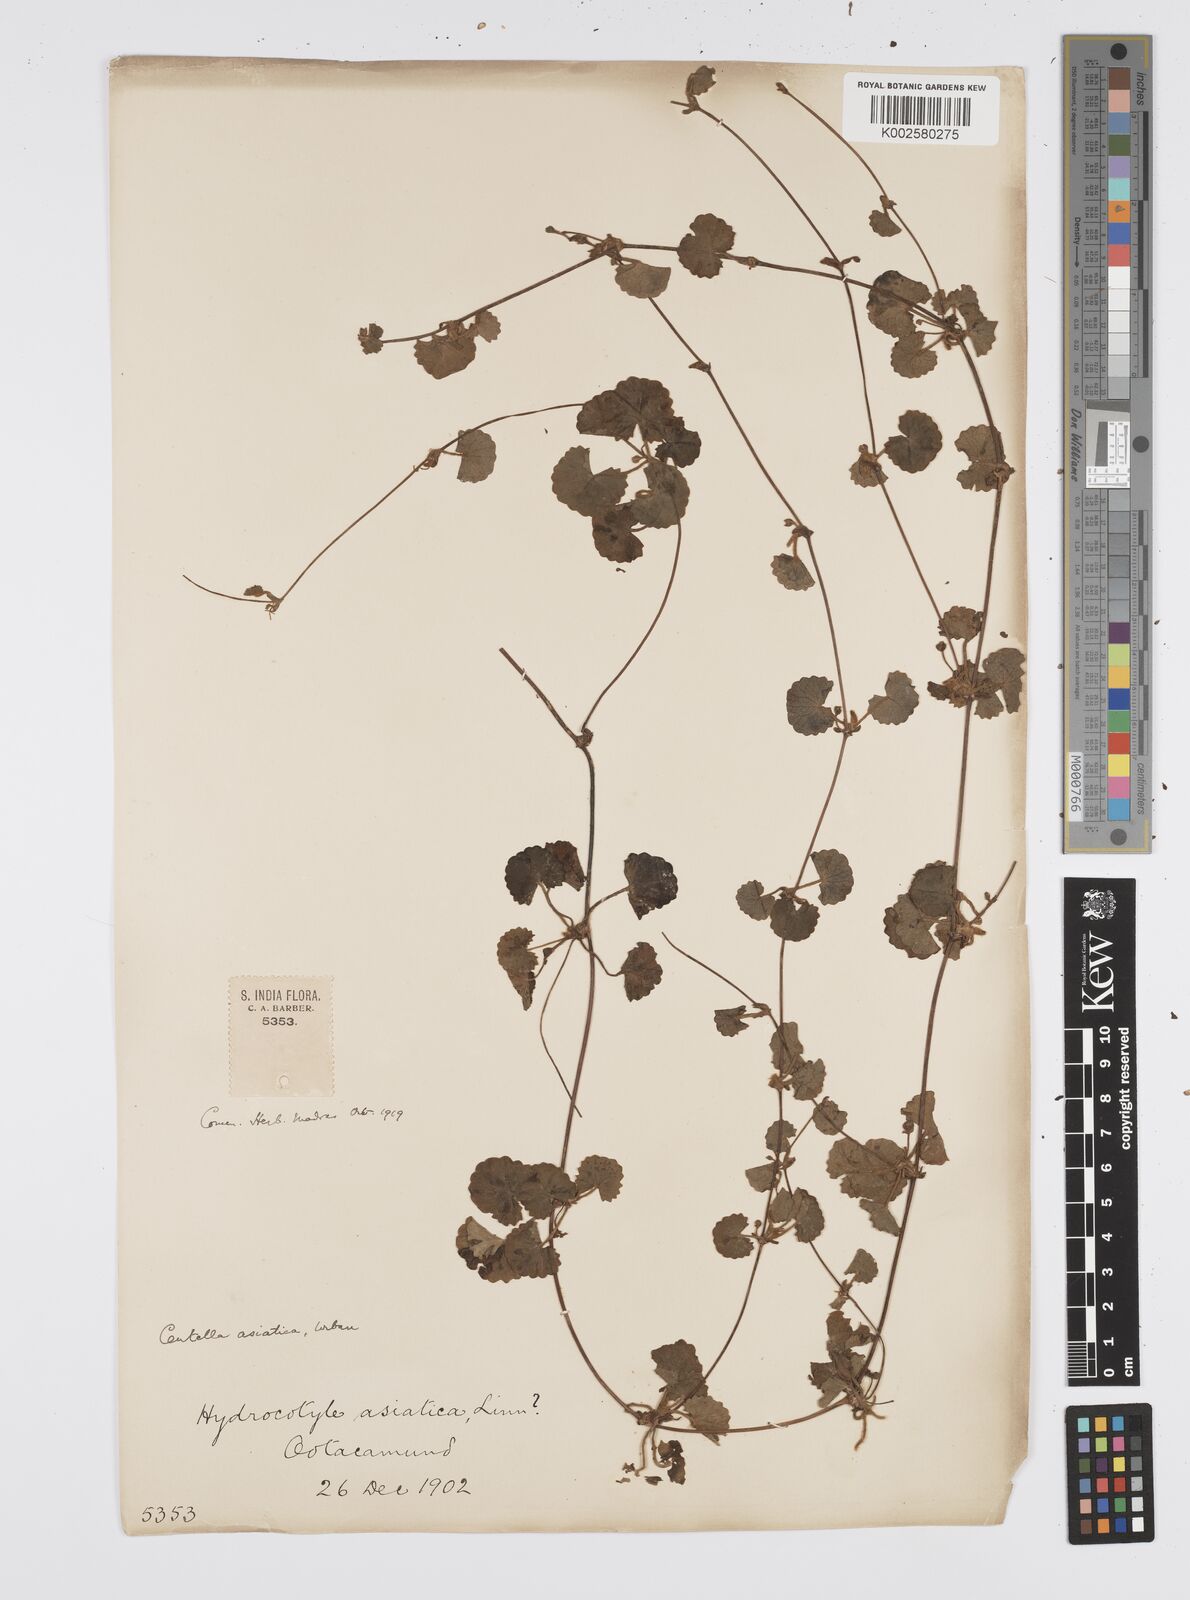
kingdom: Plantae
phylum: Tracheophyta
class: Magnoliopsida
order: Apiales
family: Apiaceae
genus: Centella
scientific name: Centella asiatica
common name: Spadeleaf
